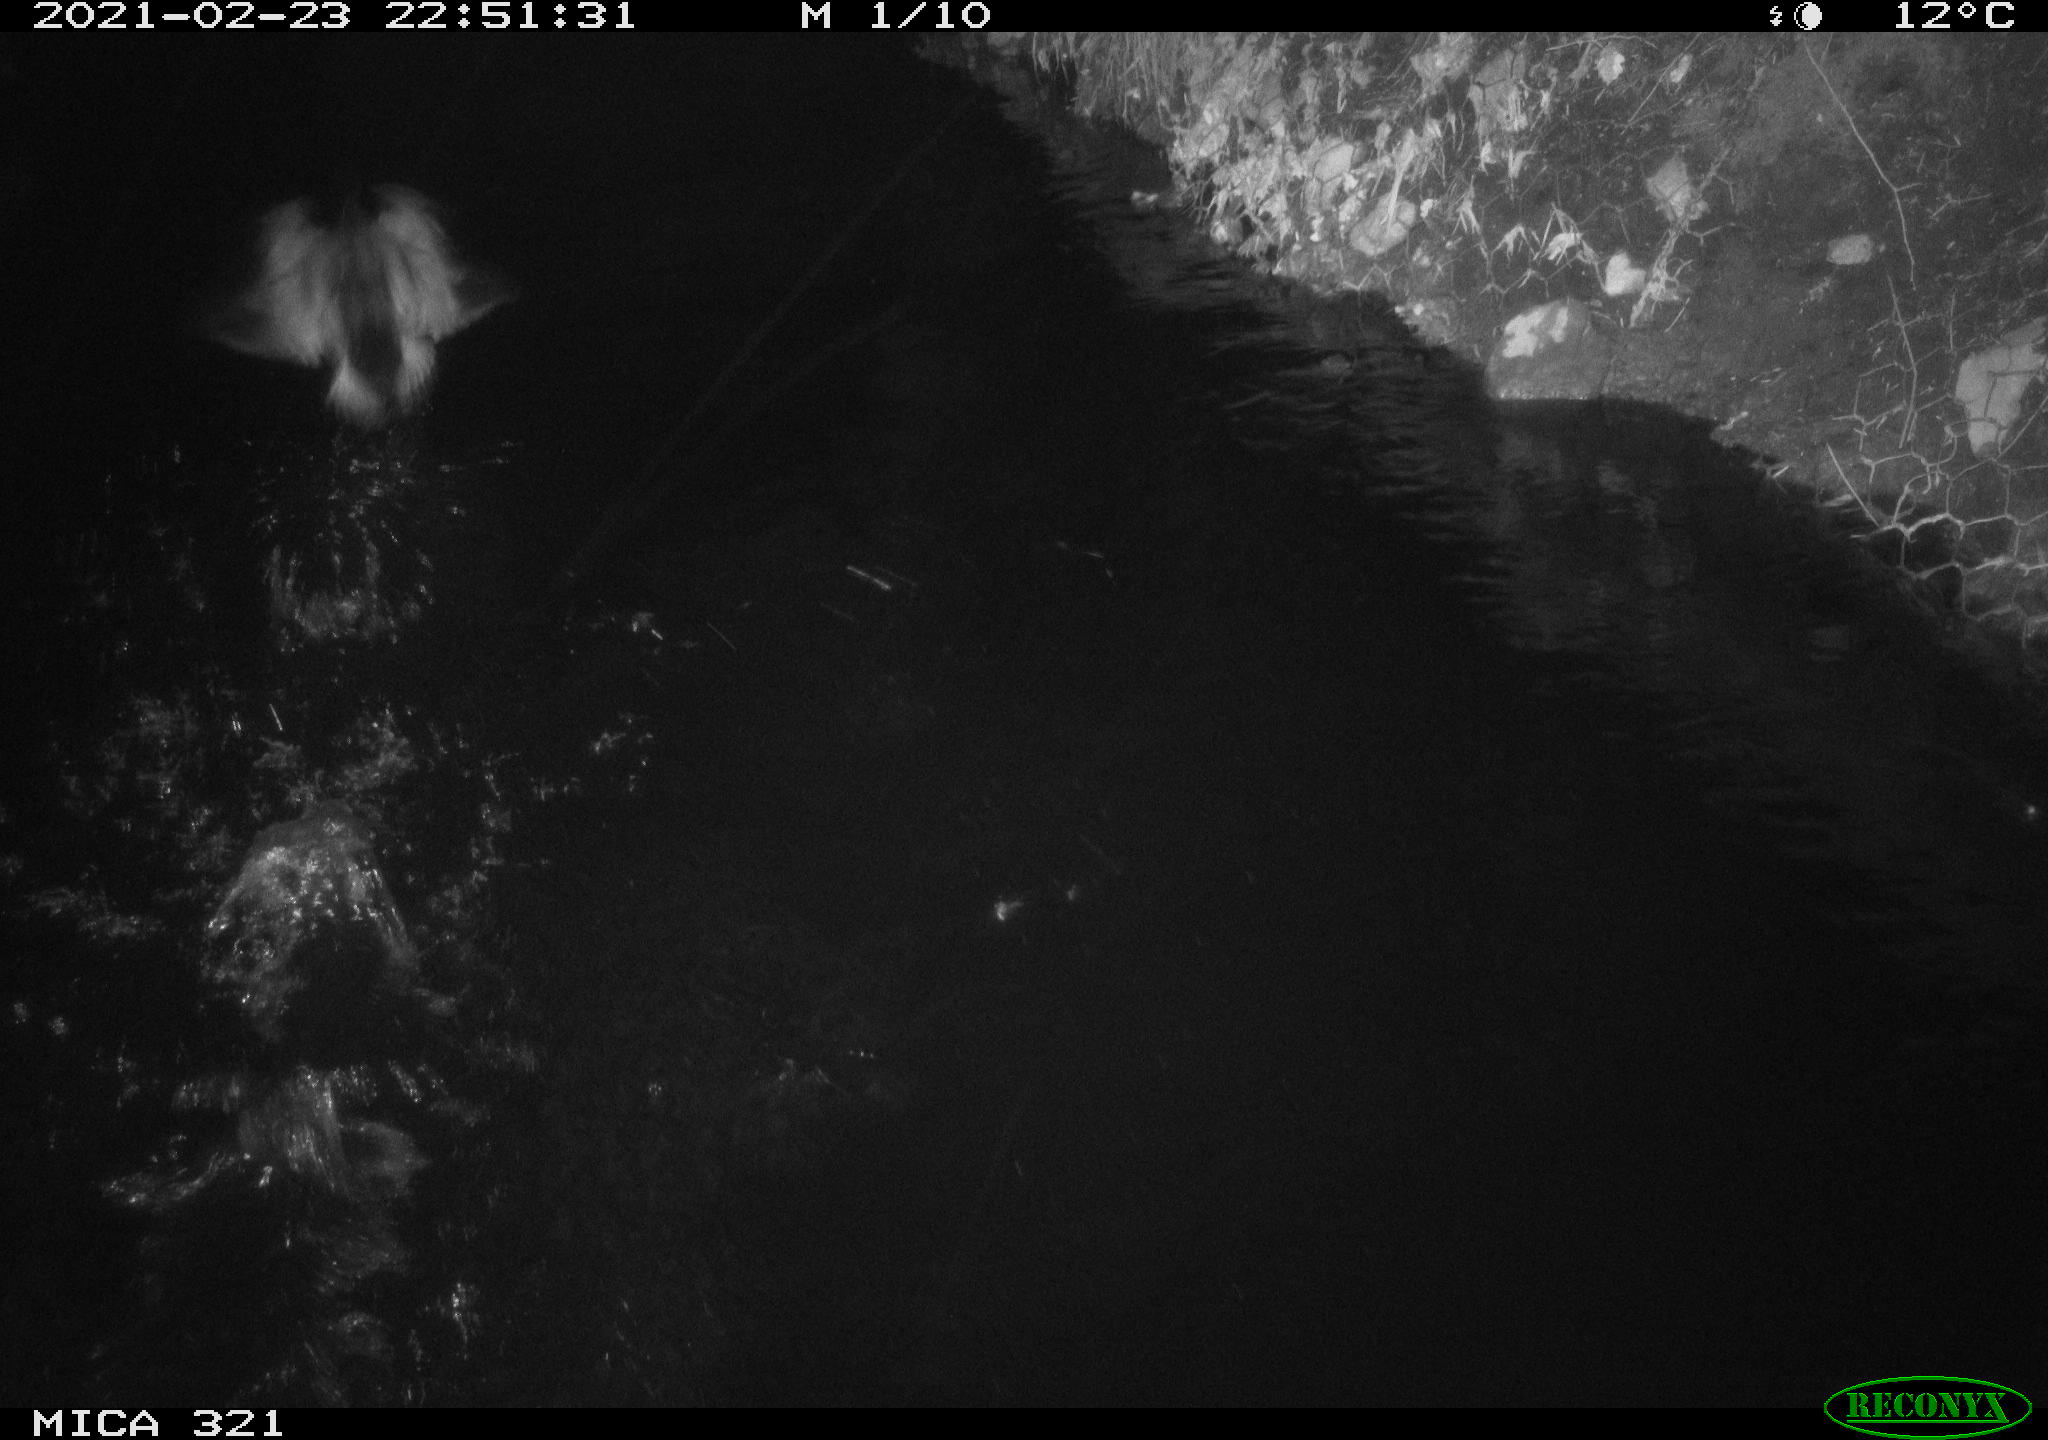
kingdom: Animalia
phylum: Chordata
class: Aves
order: Anseriformes
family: Anatidae
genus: Anas
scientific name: Anas platyrhynchos
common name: Mallard
